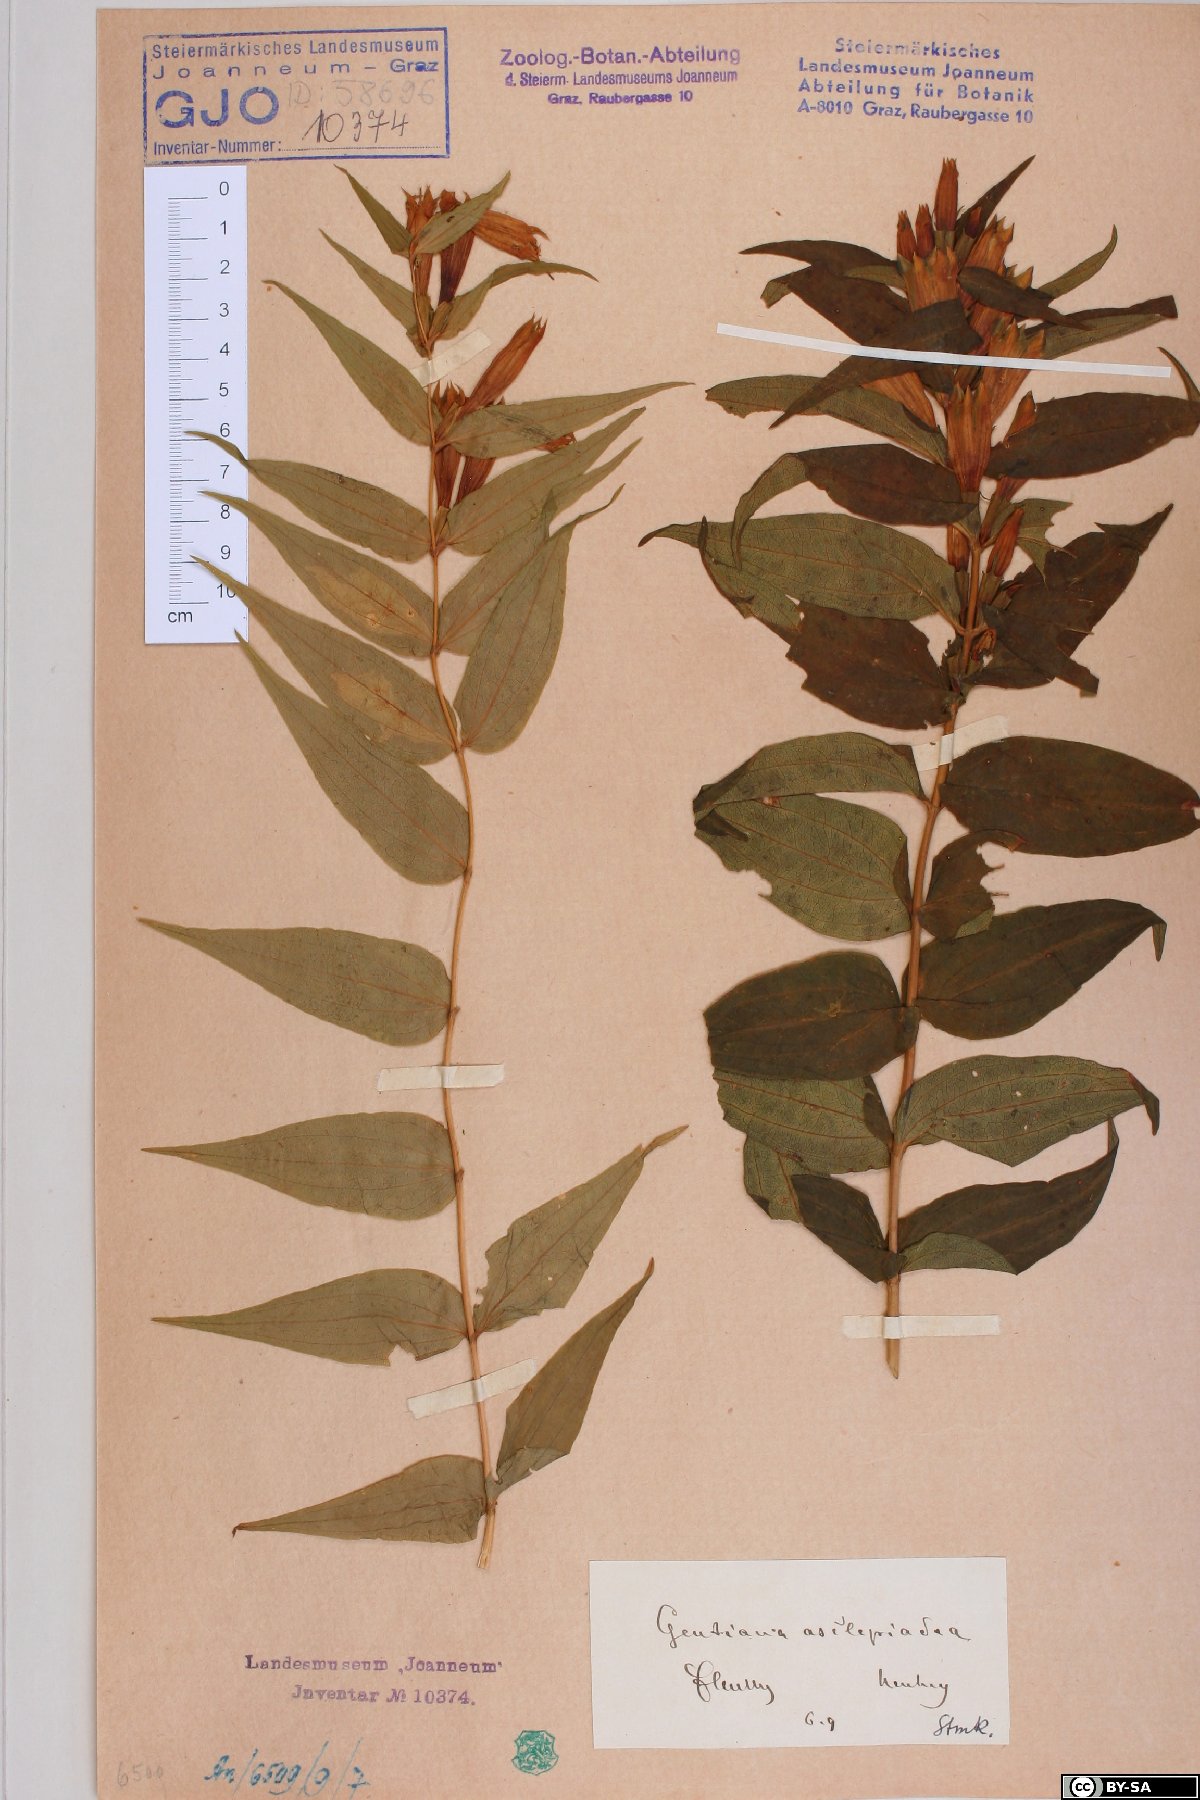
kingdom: Plantae
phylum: Tracheophyta
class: Magnoliopsida
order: Gentianales
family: Gentianaceae
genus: Gentiana
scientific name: Gentiana asclepiadea
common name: Willow gentian
